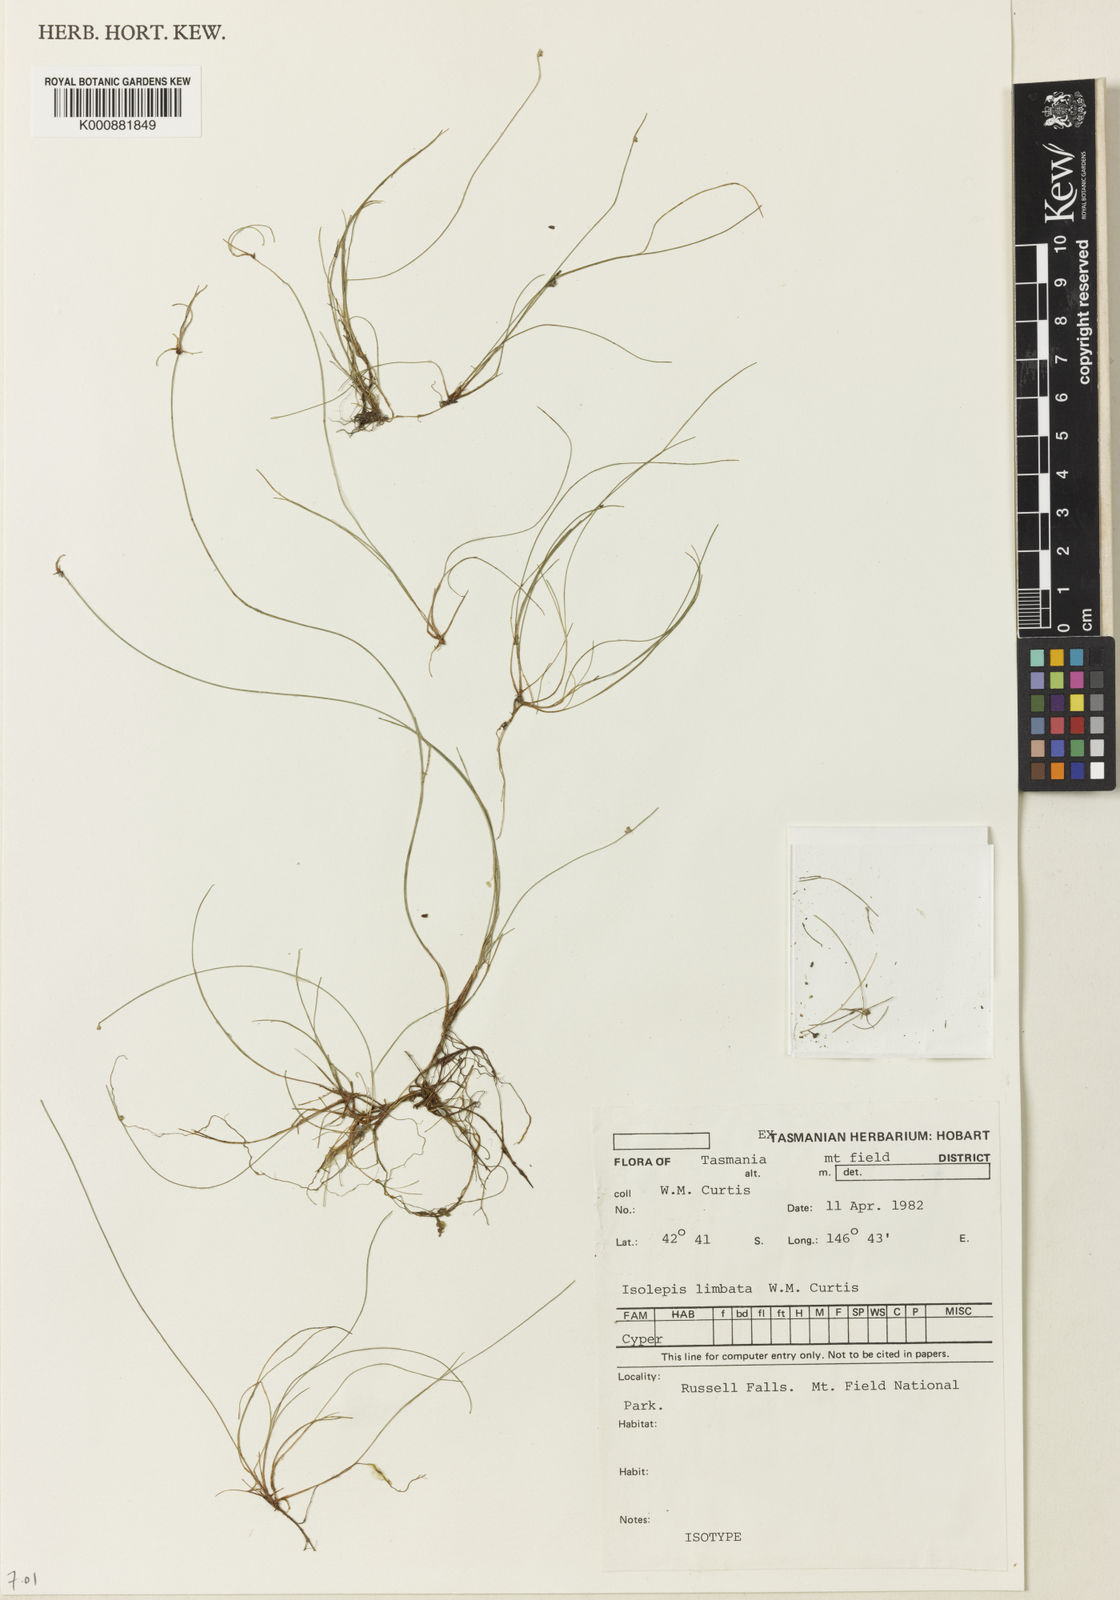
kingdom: Plantae
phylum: Tracheophyta
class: Liliopsida
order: Poales
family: Cyperaceae
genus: Isolepis
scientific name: Isolepis habra
